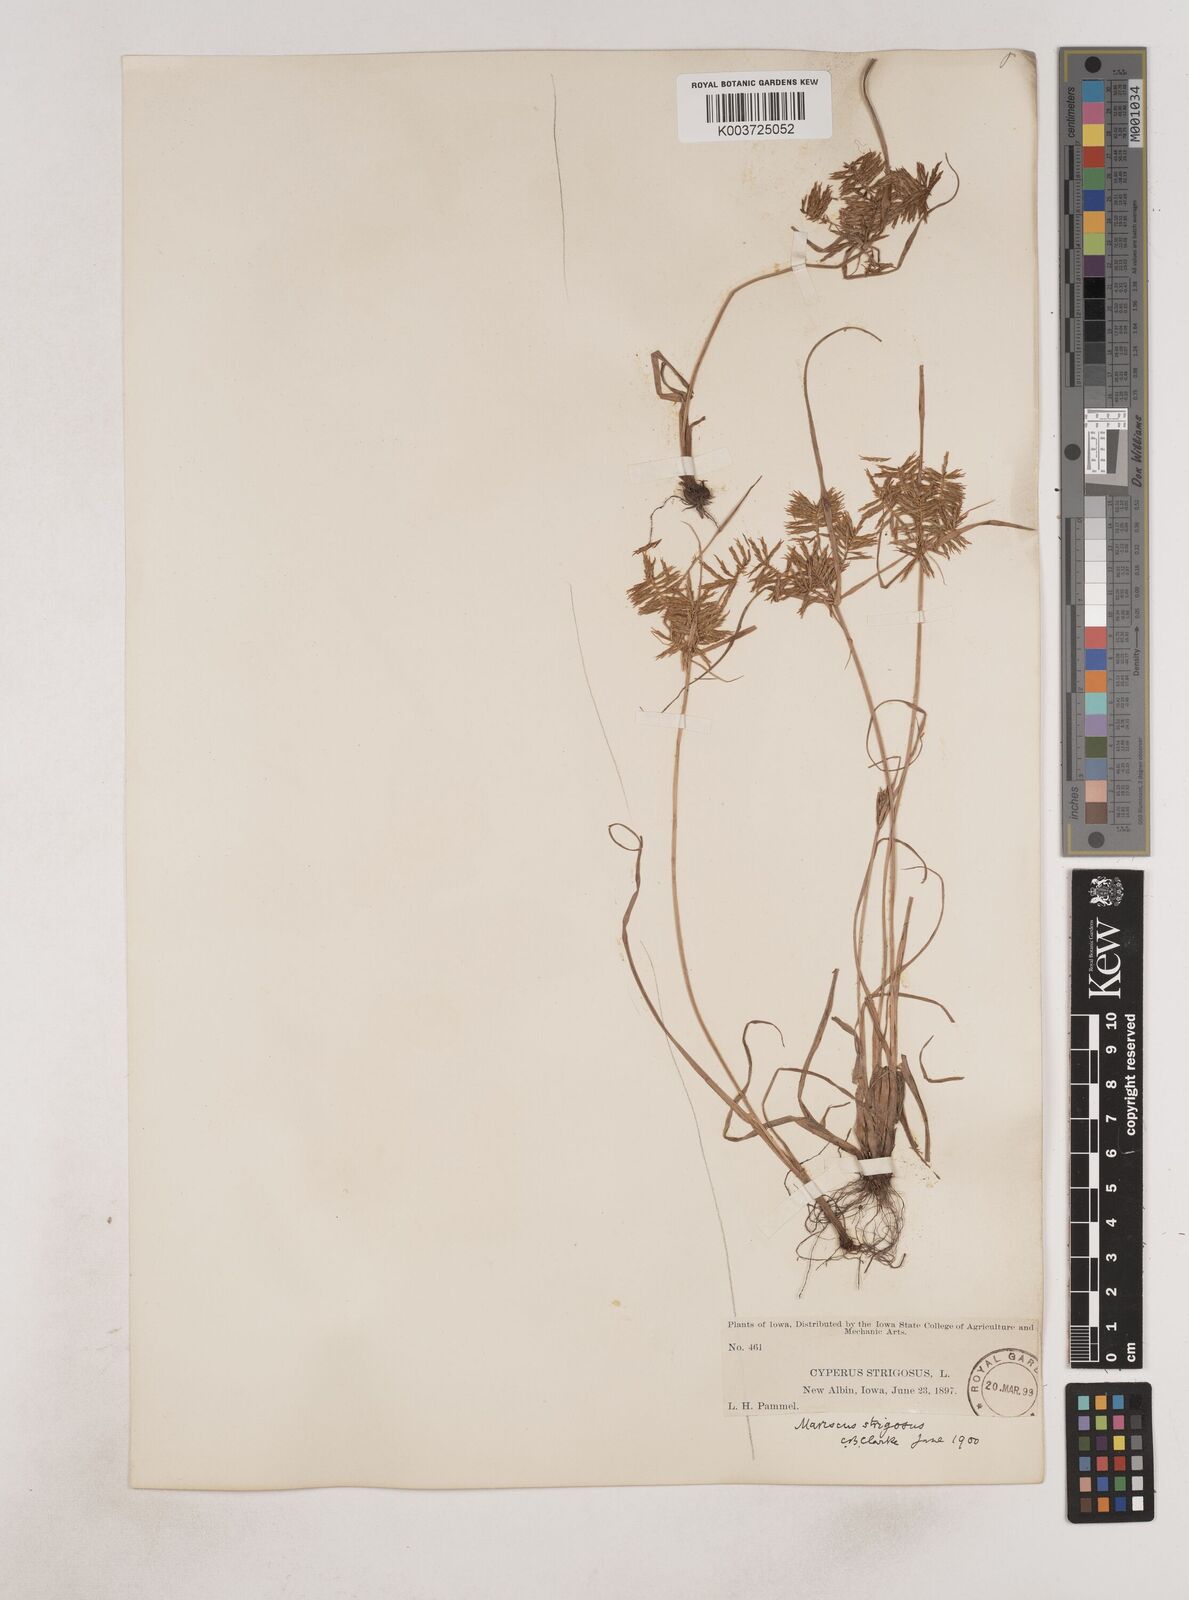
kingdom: Plantae
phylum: Tracheophyta
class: Liliopsida
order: Poales
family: Cyperaceae
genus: Cyperus
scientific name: Cyperus strigosus
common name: False nutsedge
